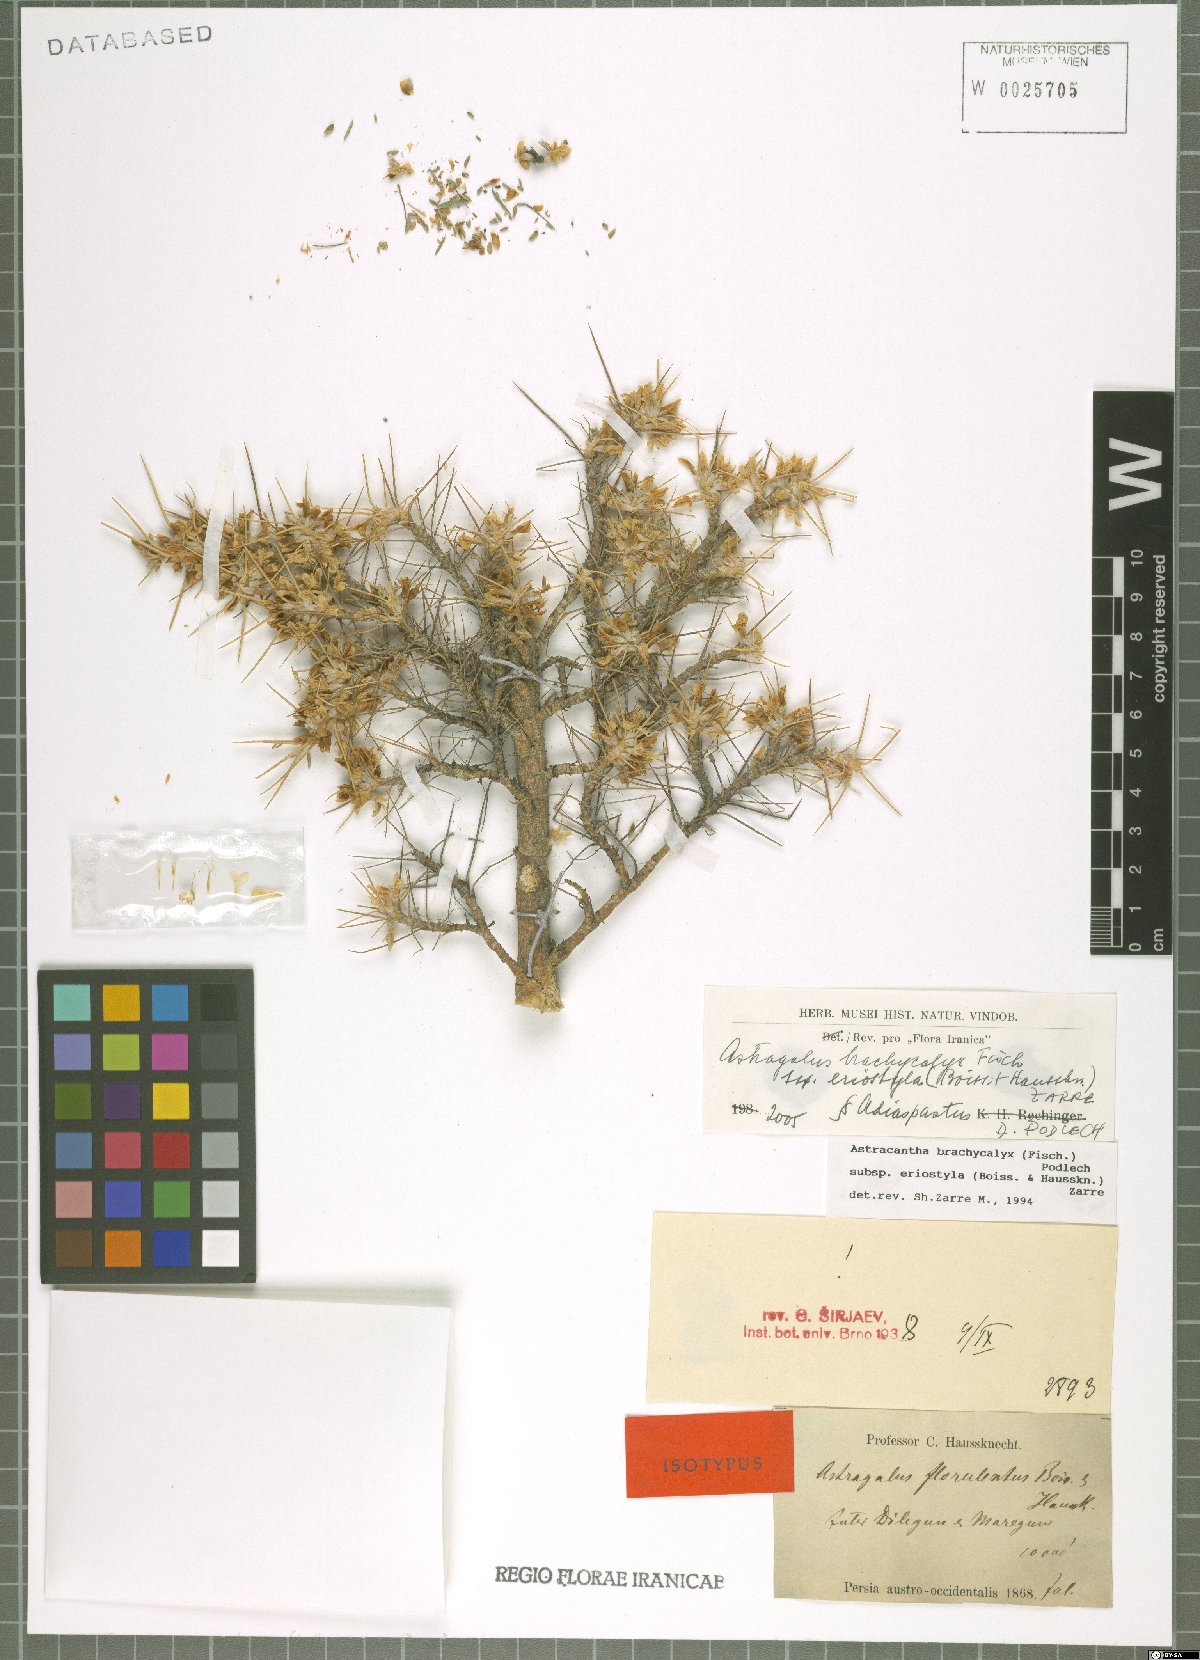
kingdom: Plantae
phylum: Tracheophyta
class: Magnoliopsida
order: Fabales
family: Fabaceae
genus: Astragalus
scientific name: Astragalus brachycalyx
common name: Persian manna
